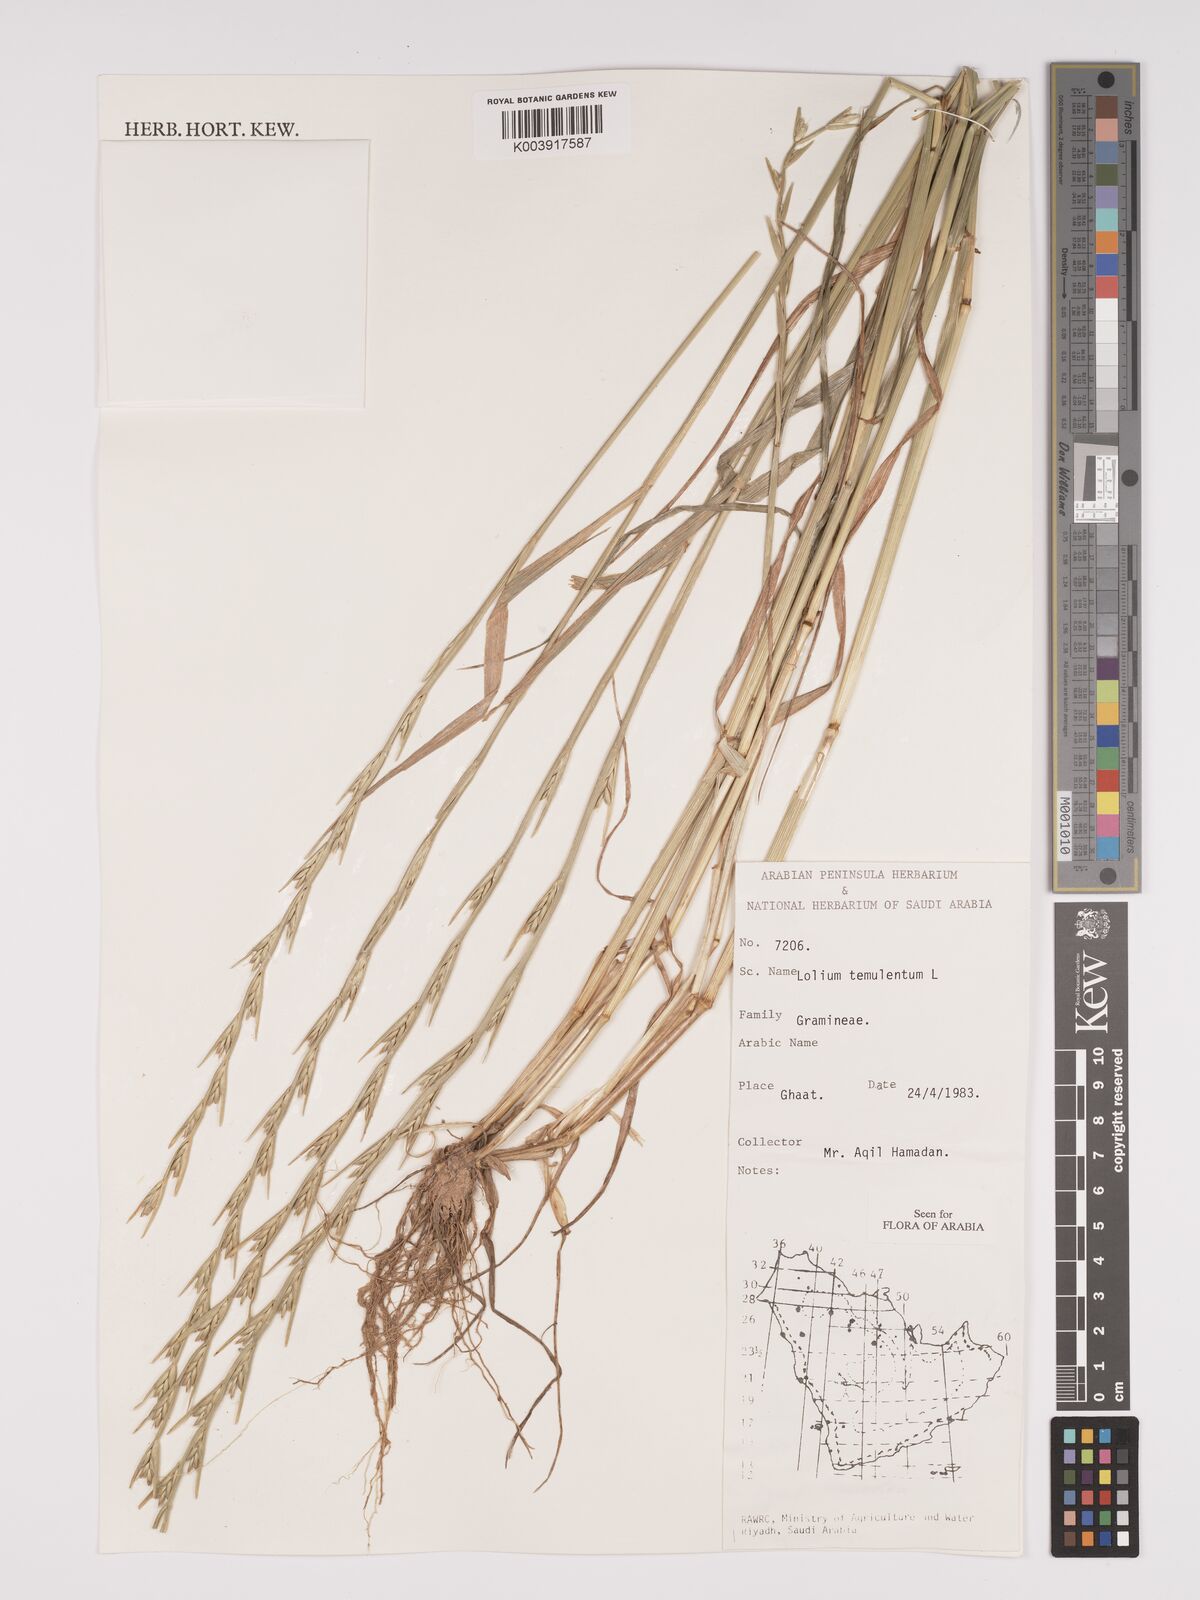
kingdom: Plantae
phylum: Tracheophyta
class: Liliopsida
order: Poales
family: Poaceae
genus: Lolium
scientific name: Lolium temulentum
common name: Darnel
